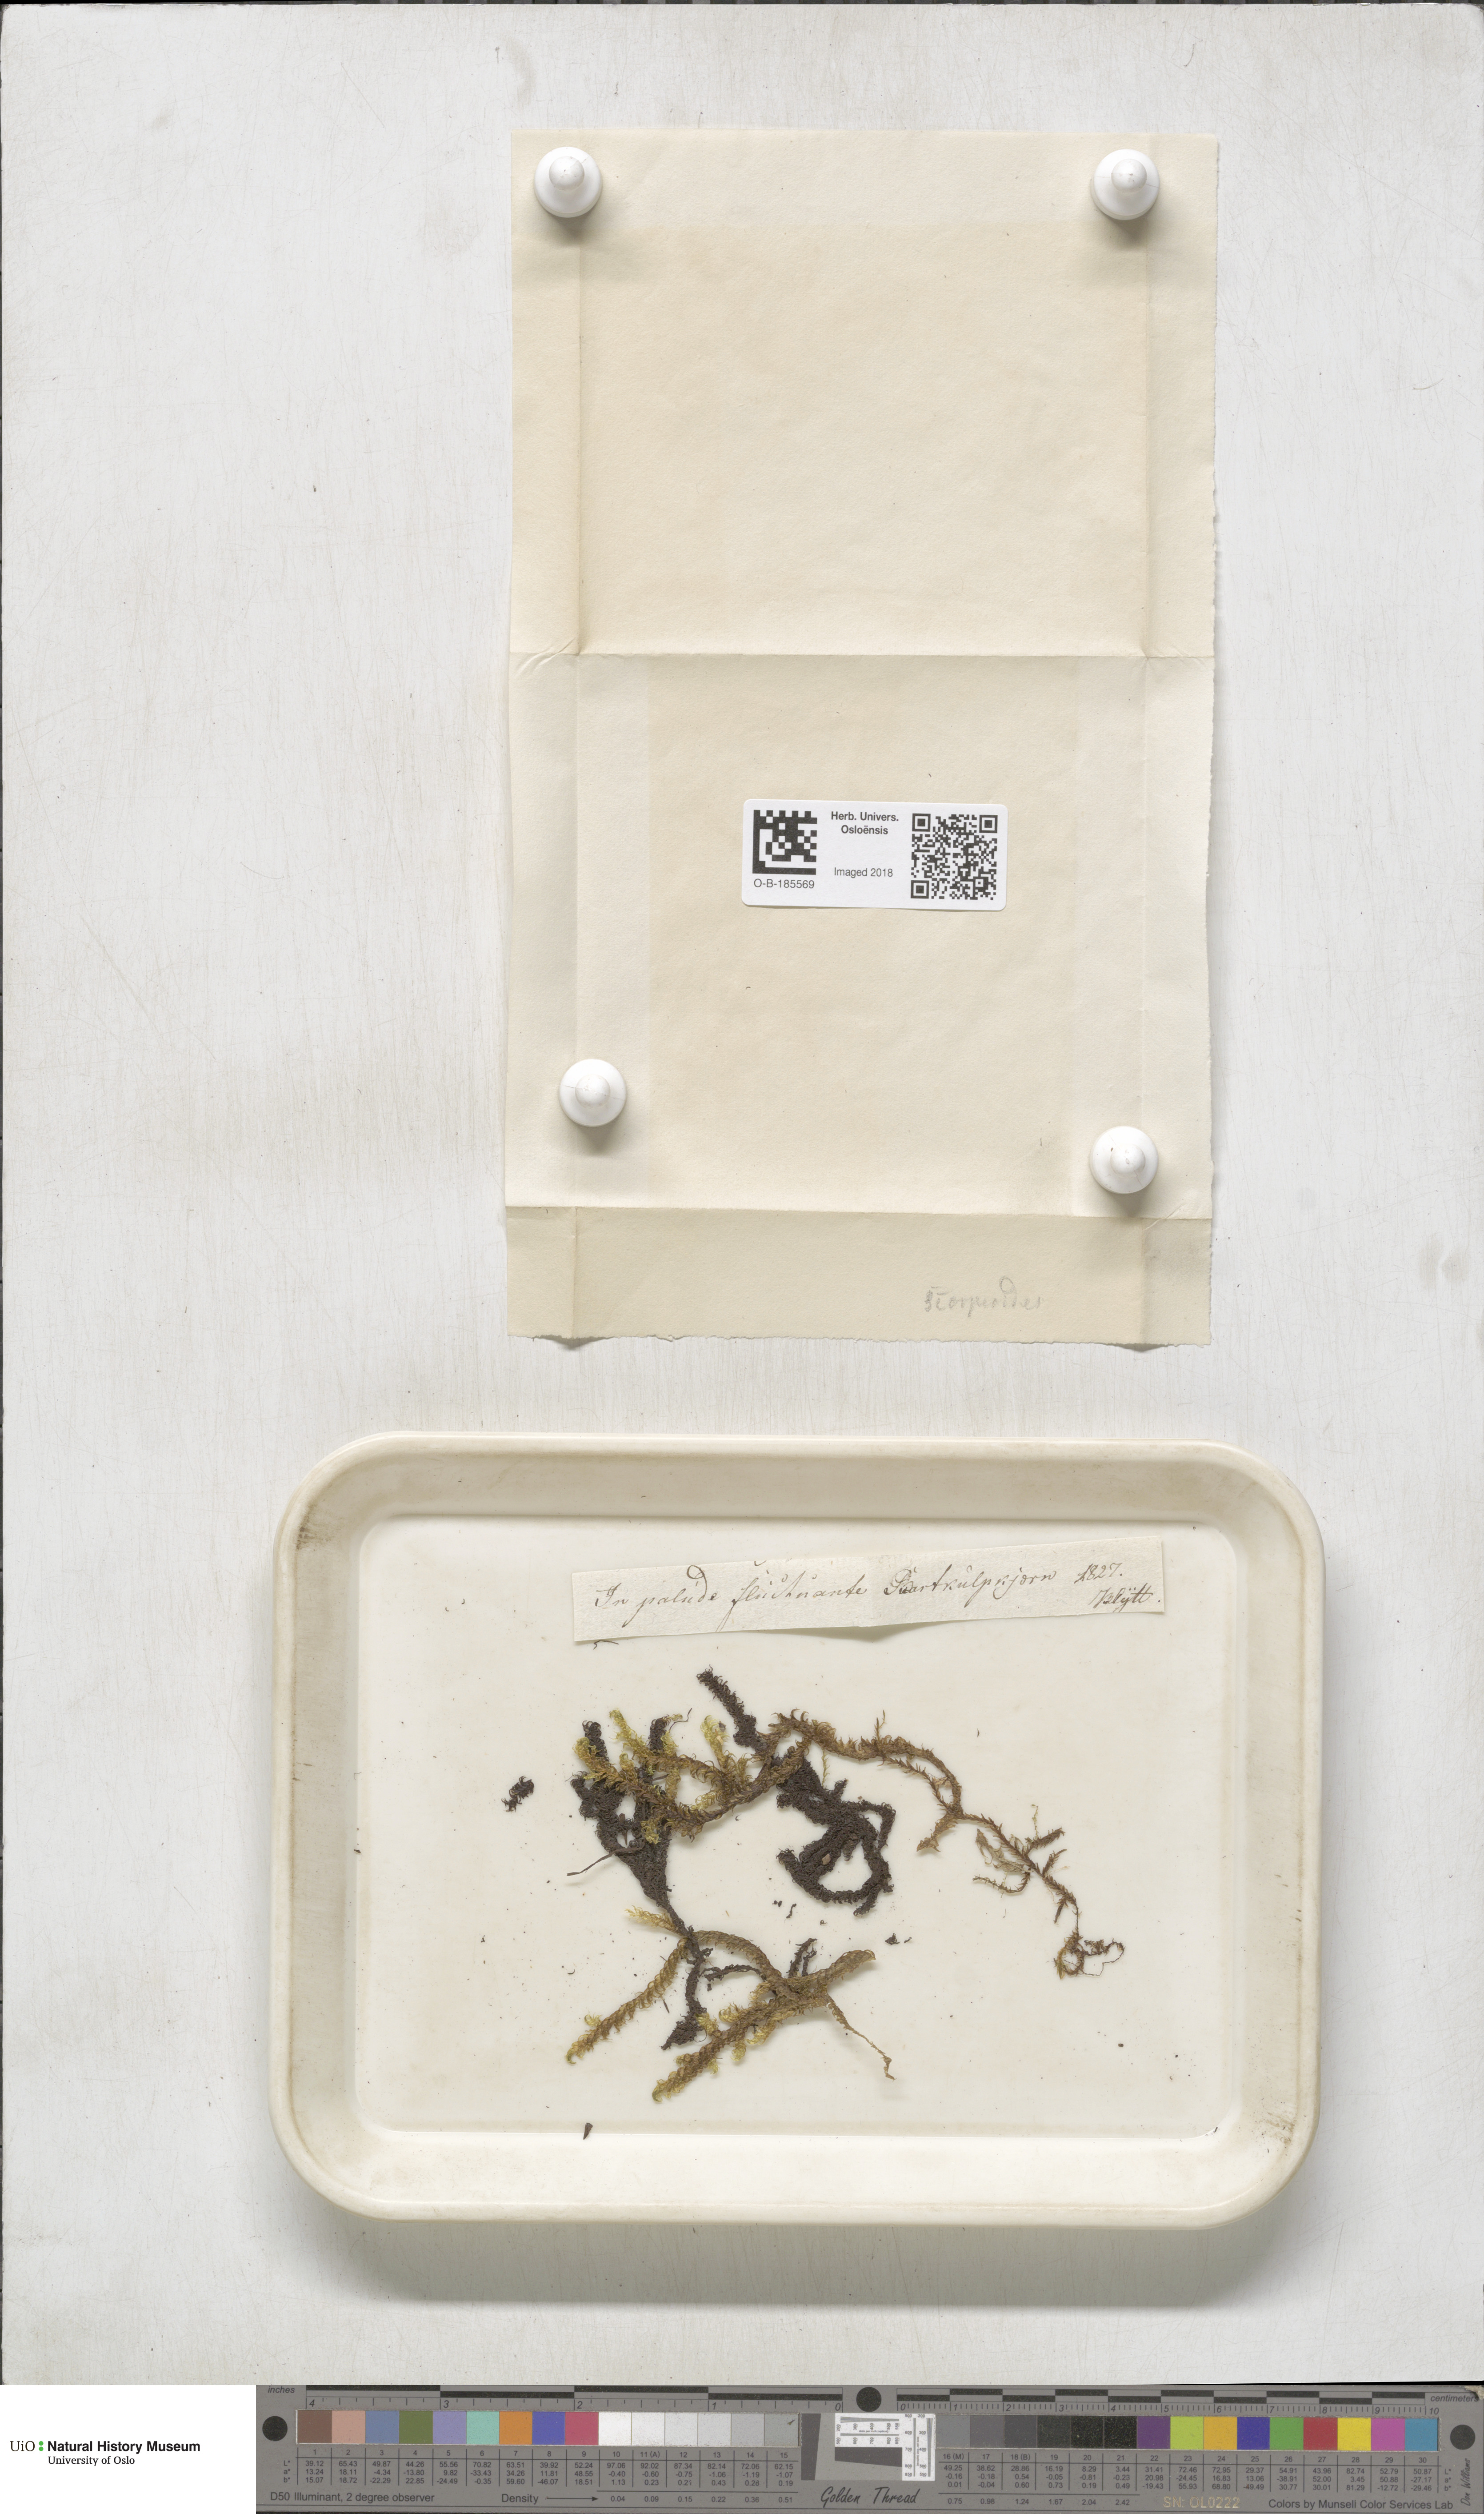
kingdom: Plantae
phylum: Bryophyta
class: Bryopsida
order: Hypnales
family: Scorpidiaceae
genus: Scorpidium
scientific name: Scorpidium scorpioides
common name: Hooked scorpion moss
